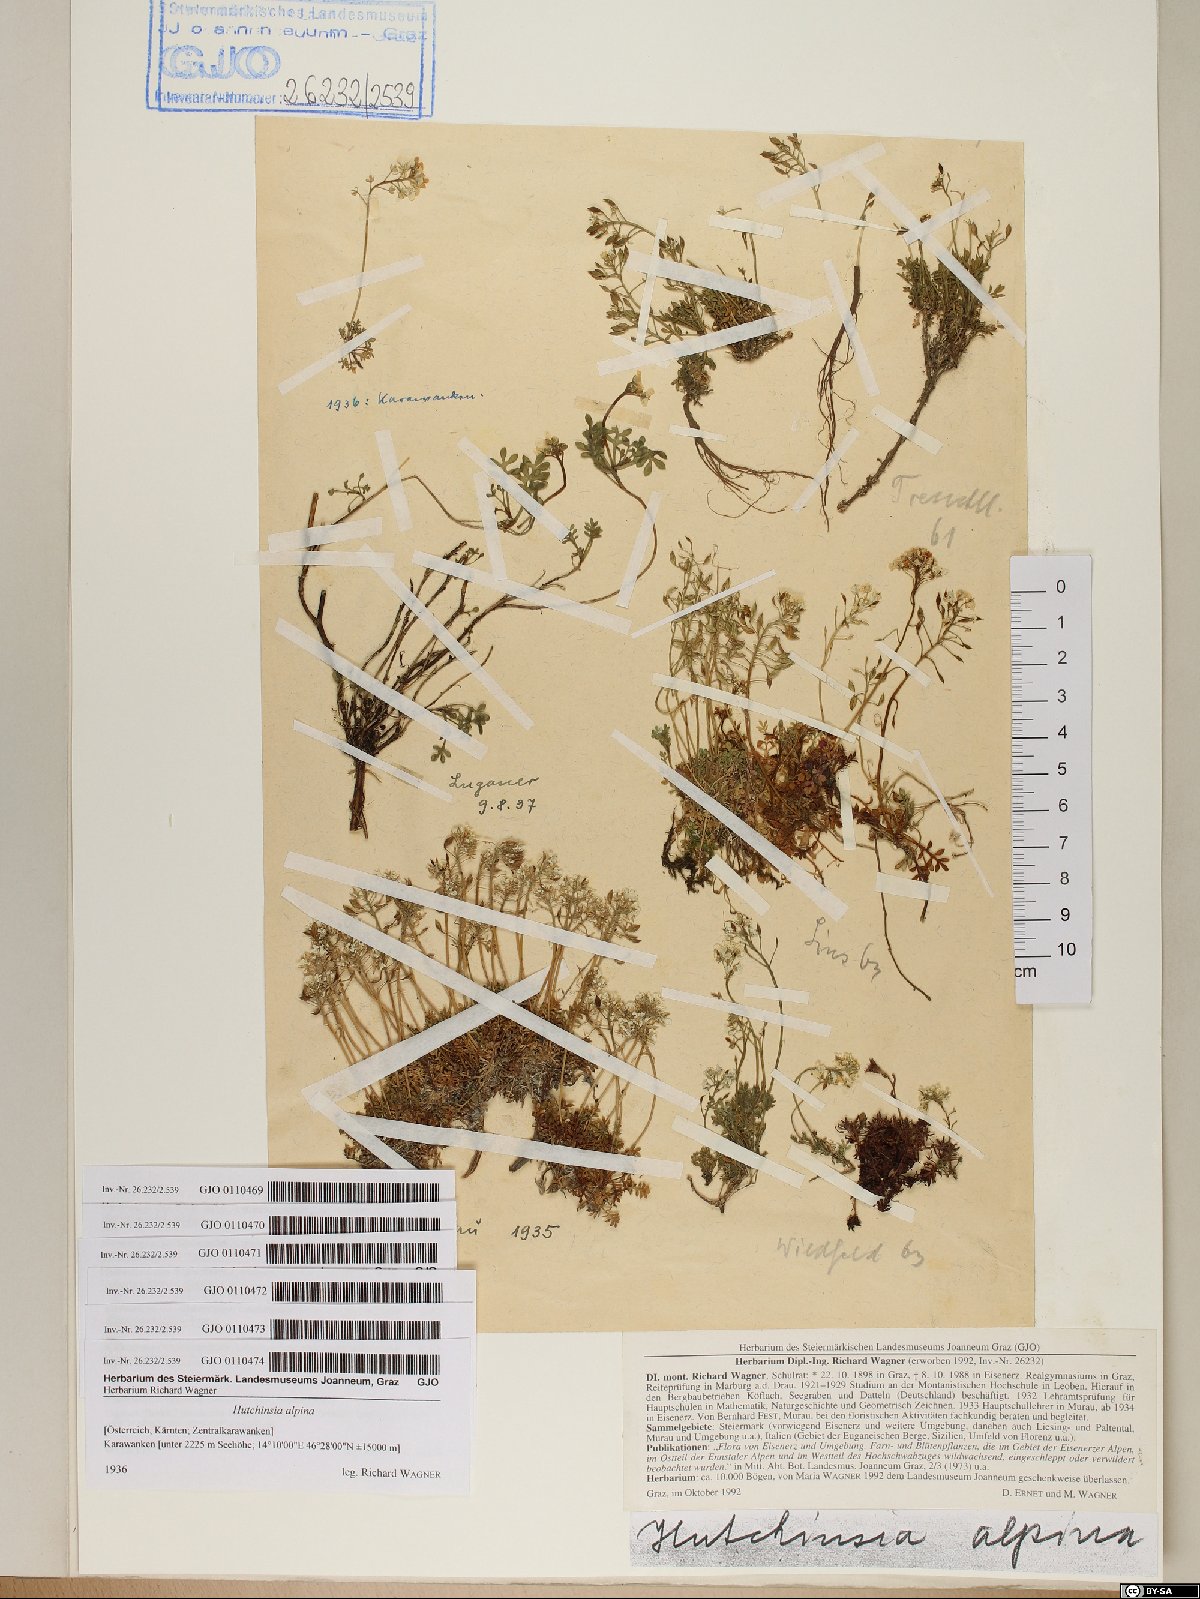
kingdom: Plantae
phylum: Tracheophyta
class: Magnoliopsida
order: Brassicales
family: Brassicaceae
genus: Hornungia
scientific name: Hornungia alpina
